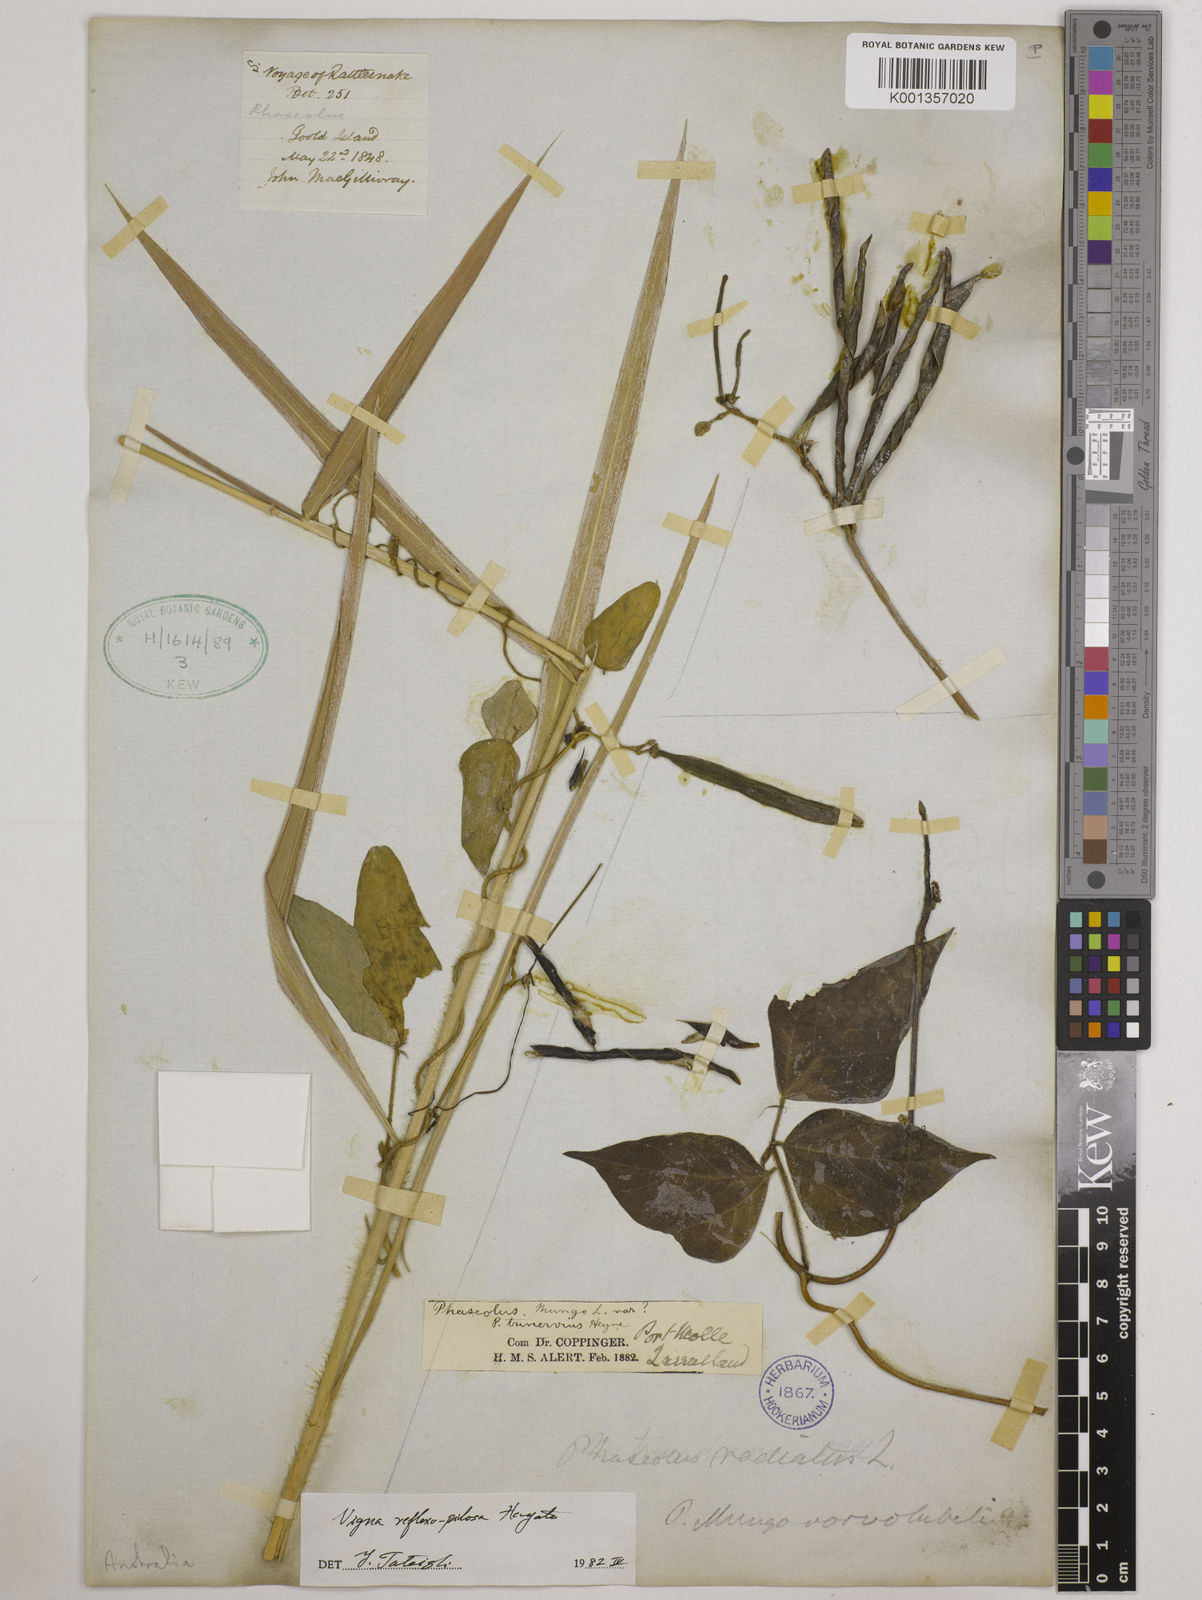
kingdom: Plantae
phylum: Tracheophyta
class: Magnoliopsida
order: Fabales
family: Fabaceae
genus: Vigna
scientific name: Vigna reflexopilosa
